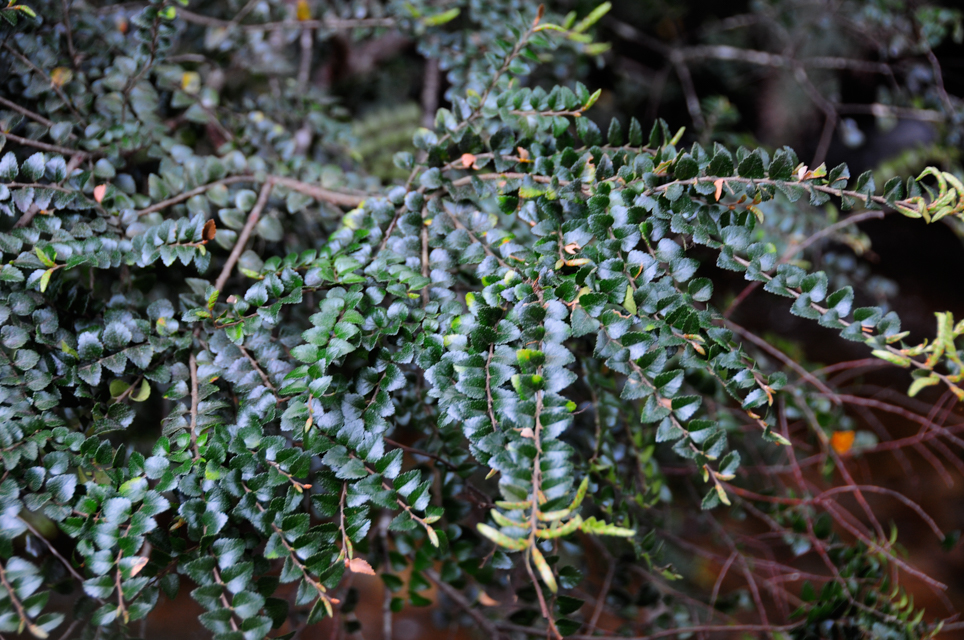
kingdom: Plantae
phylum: Tracheophyta
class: Magnoliopsida
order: Fagales
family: Nothofagaceae
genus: Nothofagus
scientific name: Nothofagus cunninghamii
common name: Myrtle beech
